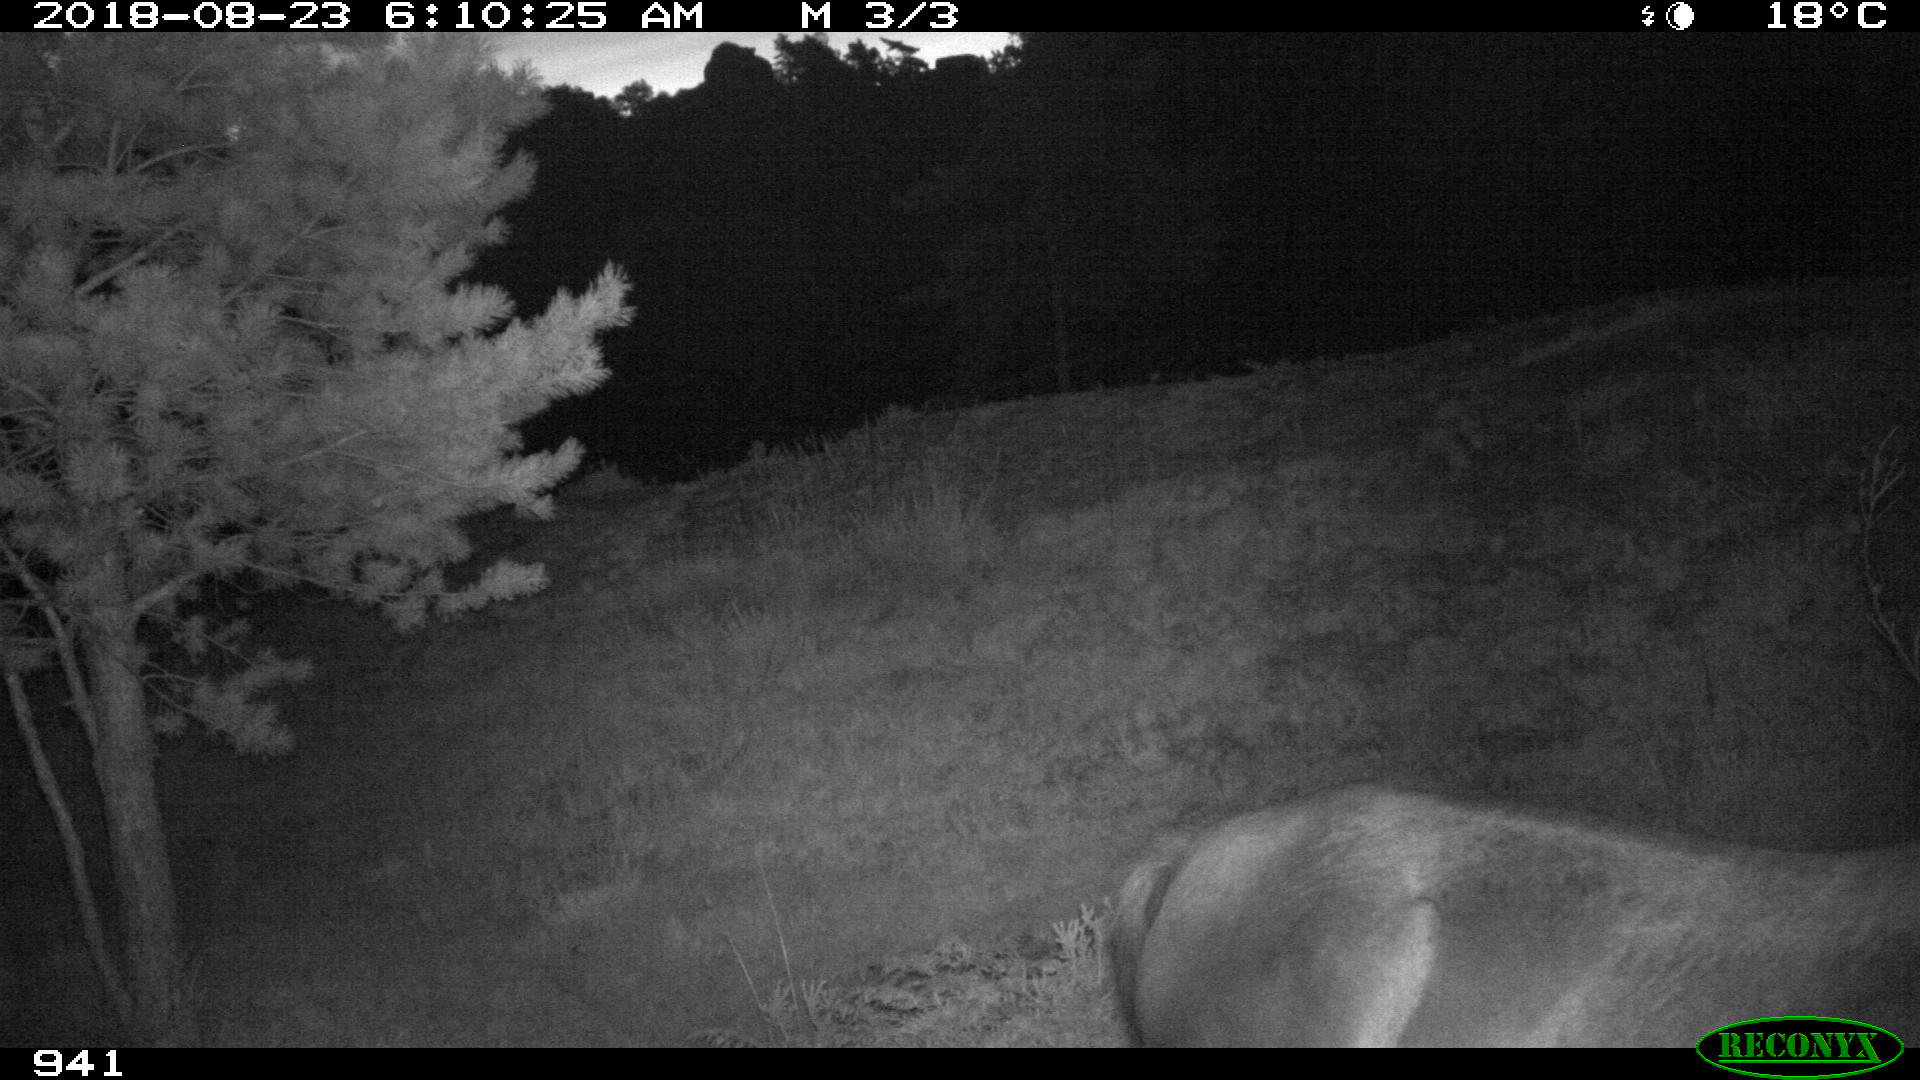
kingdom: Animalia
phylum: Chordata
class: Mammalia
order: Perissodactyla
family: Equidae
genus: Equus
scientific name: Equus caballus
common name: Horse
